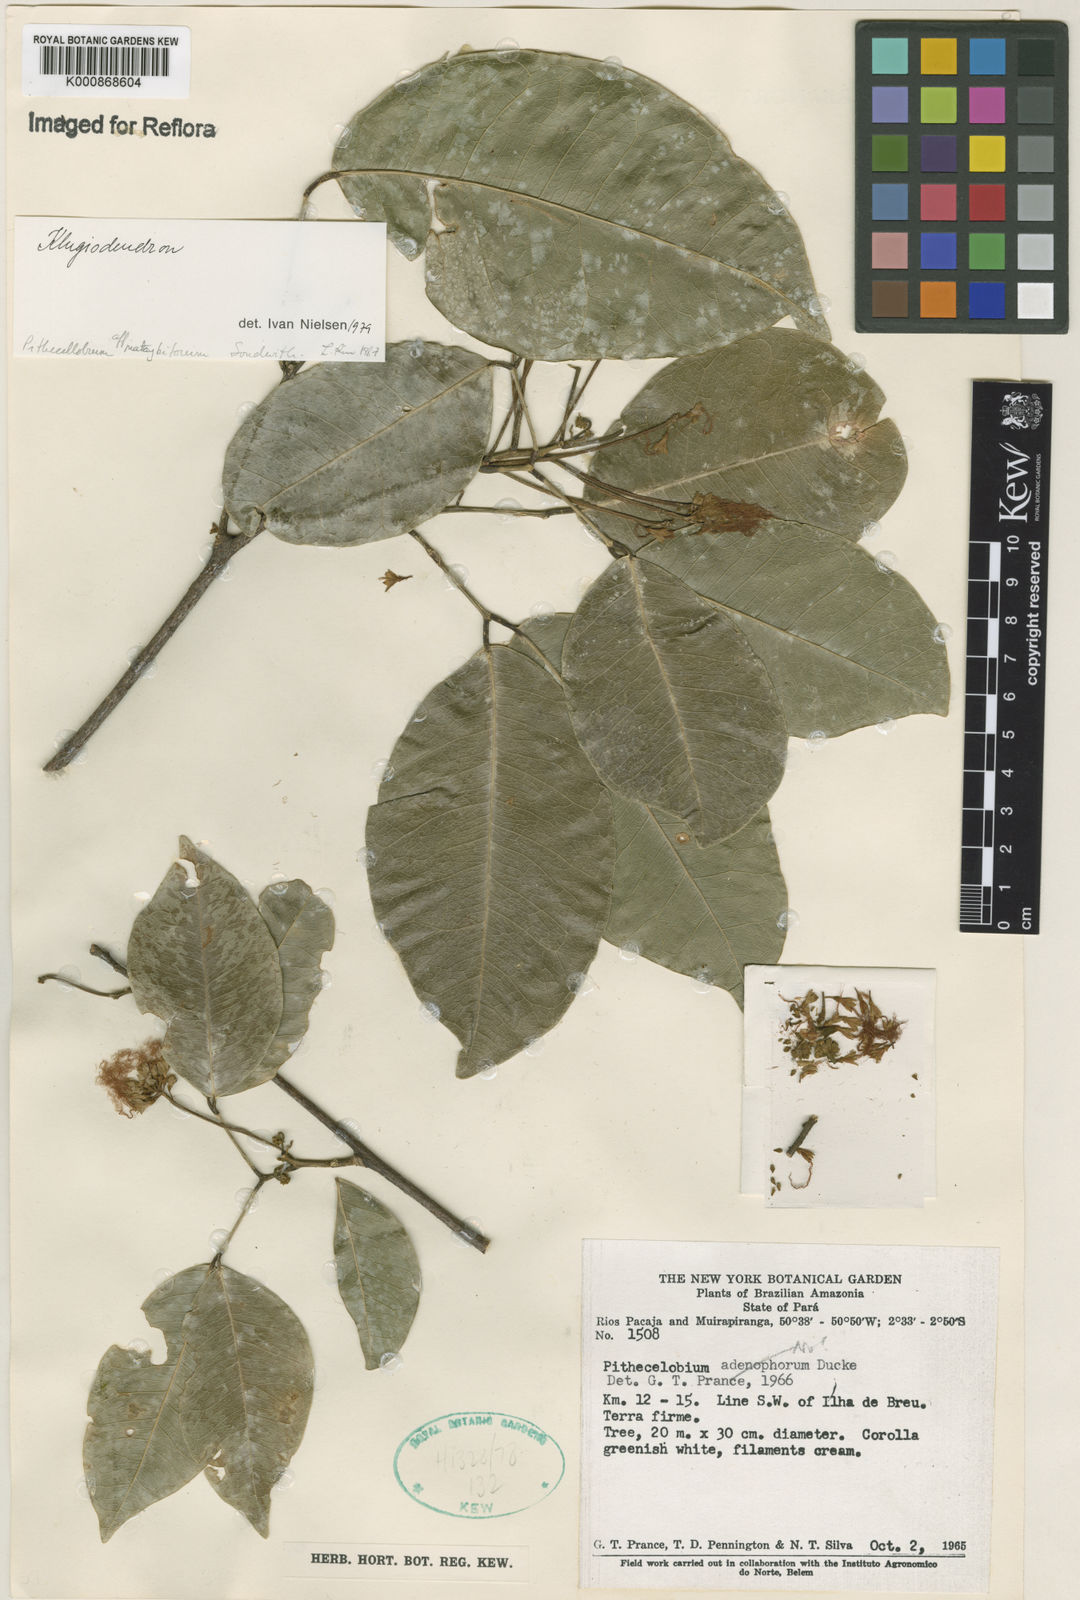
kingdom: Plantae
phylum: Tracheophyta
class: Magnoliopsida
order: Fabales
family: Fabaceae
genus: Jupunba
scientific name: Jupunba mataybifolia
